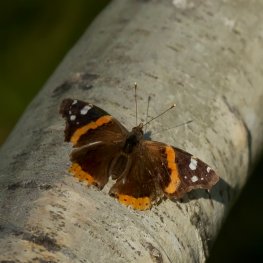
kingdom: Animalia
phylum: Arthropoda
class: Insecta
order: Lepidoptera
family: Nymphalidae
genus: Vanessa
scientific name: Vanessa atalanta
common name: Red Admiral
